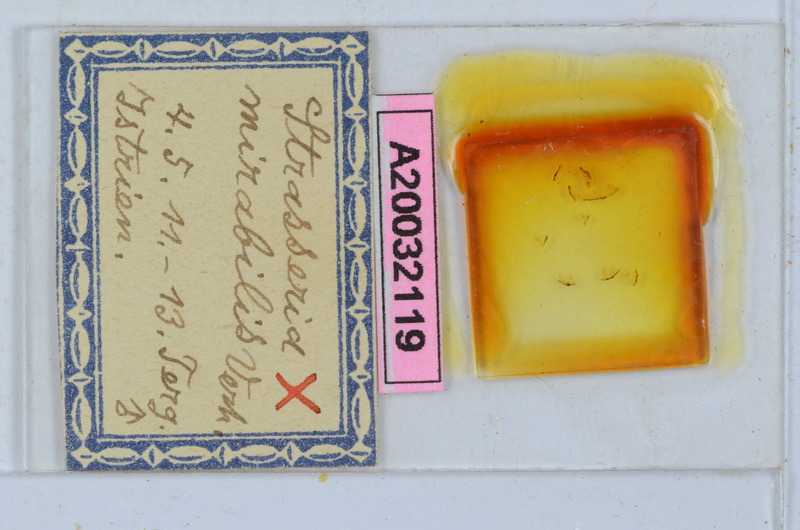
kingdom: Animalia
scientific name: Animalia
